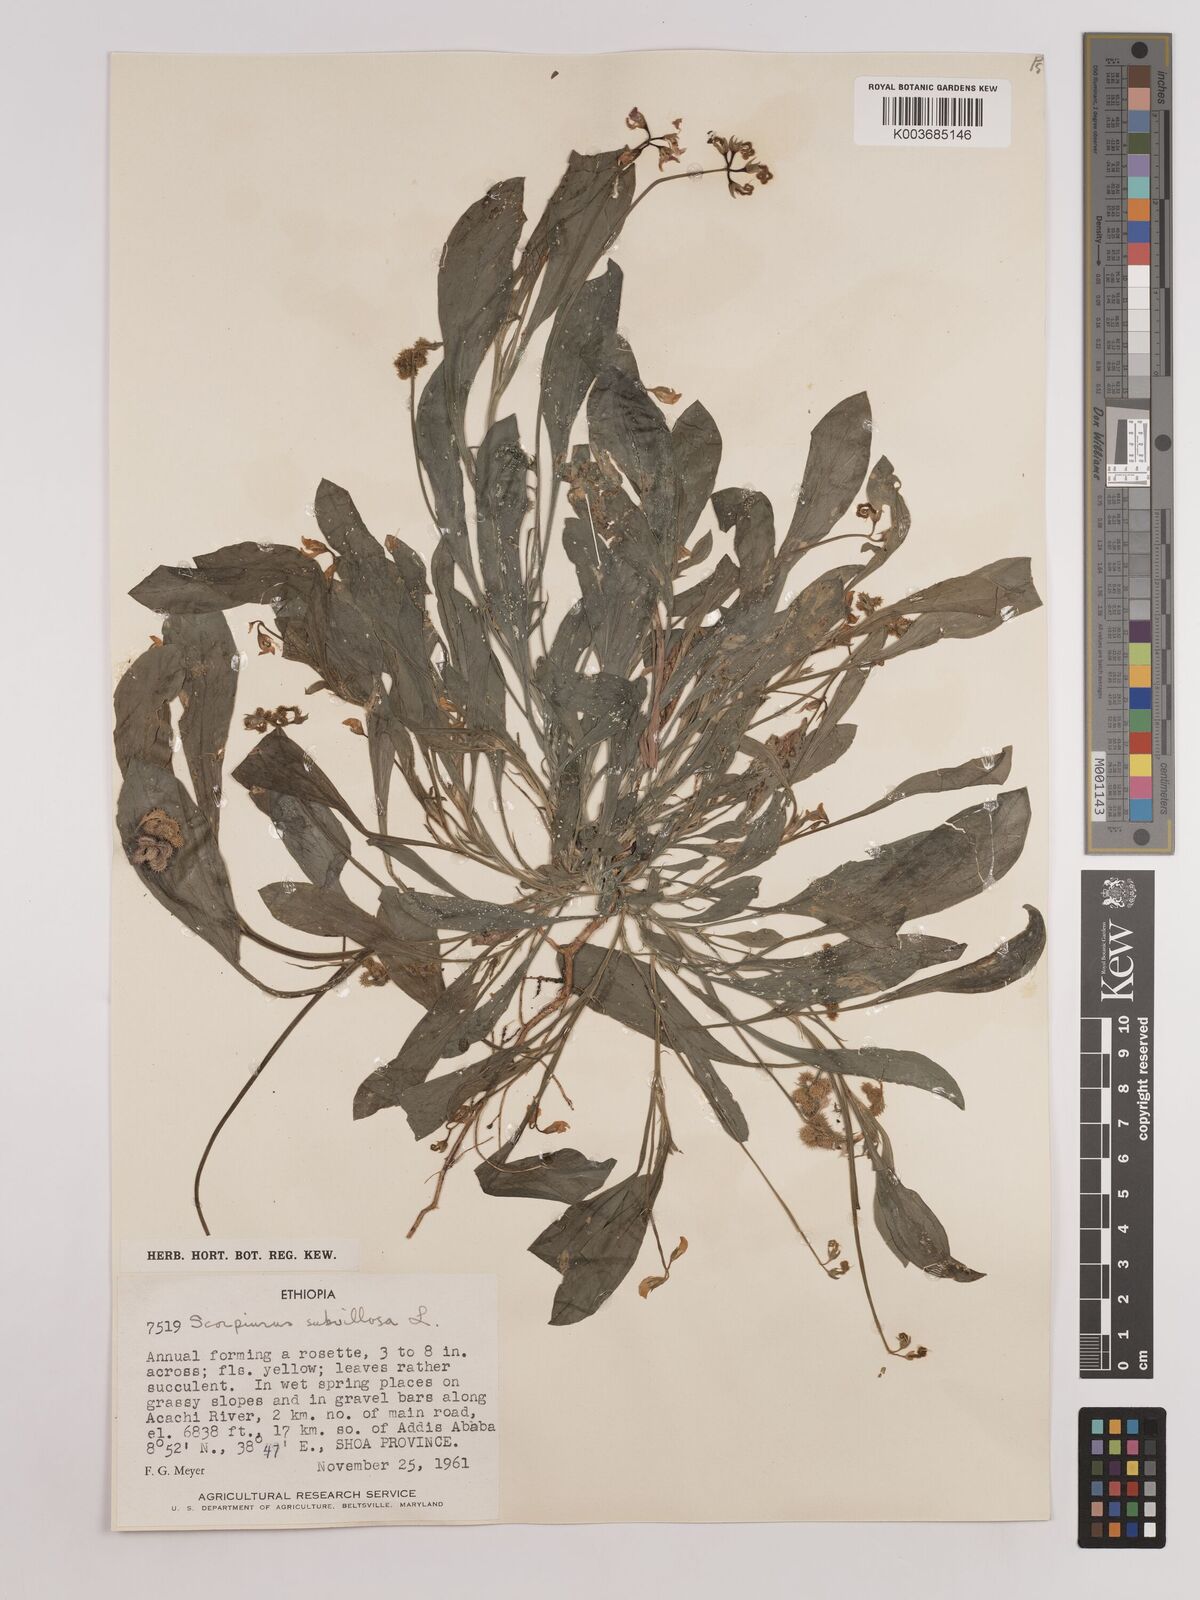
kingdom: Plantae
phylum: Tracheophyta
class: Magnoliopsida
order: Fabales
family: Fabaceae
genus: Scorpiurus
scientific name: Scorpiurus muricatus
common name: Caterpillar-plant
